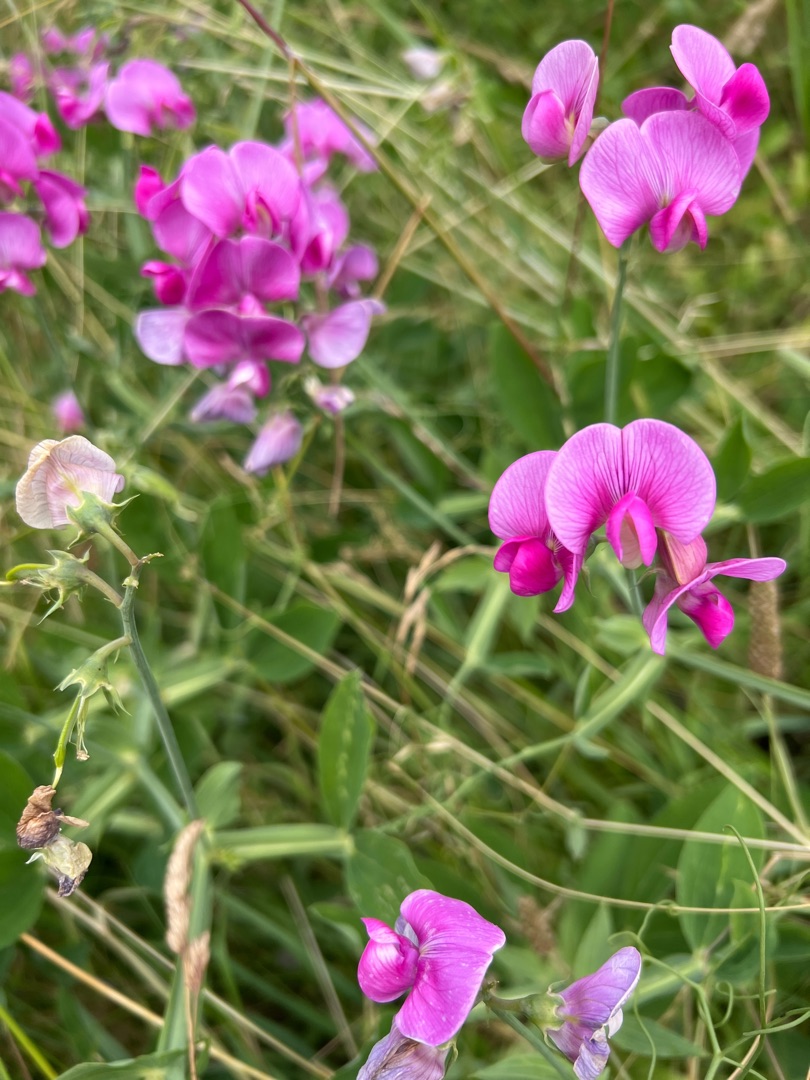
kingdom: Plantae
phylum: Tracheophyta
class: Magnoliopsida
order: Fabales
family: Fabaceae
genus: Lathyrus
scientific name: Lathyrus latifolius
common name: Flerårig ærteblomst
